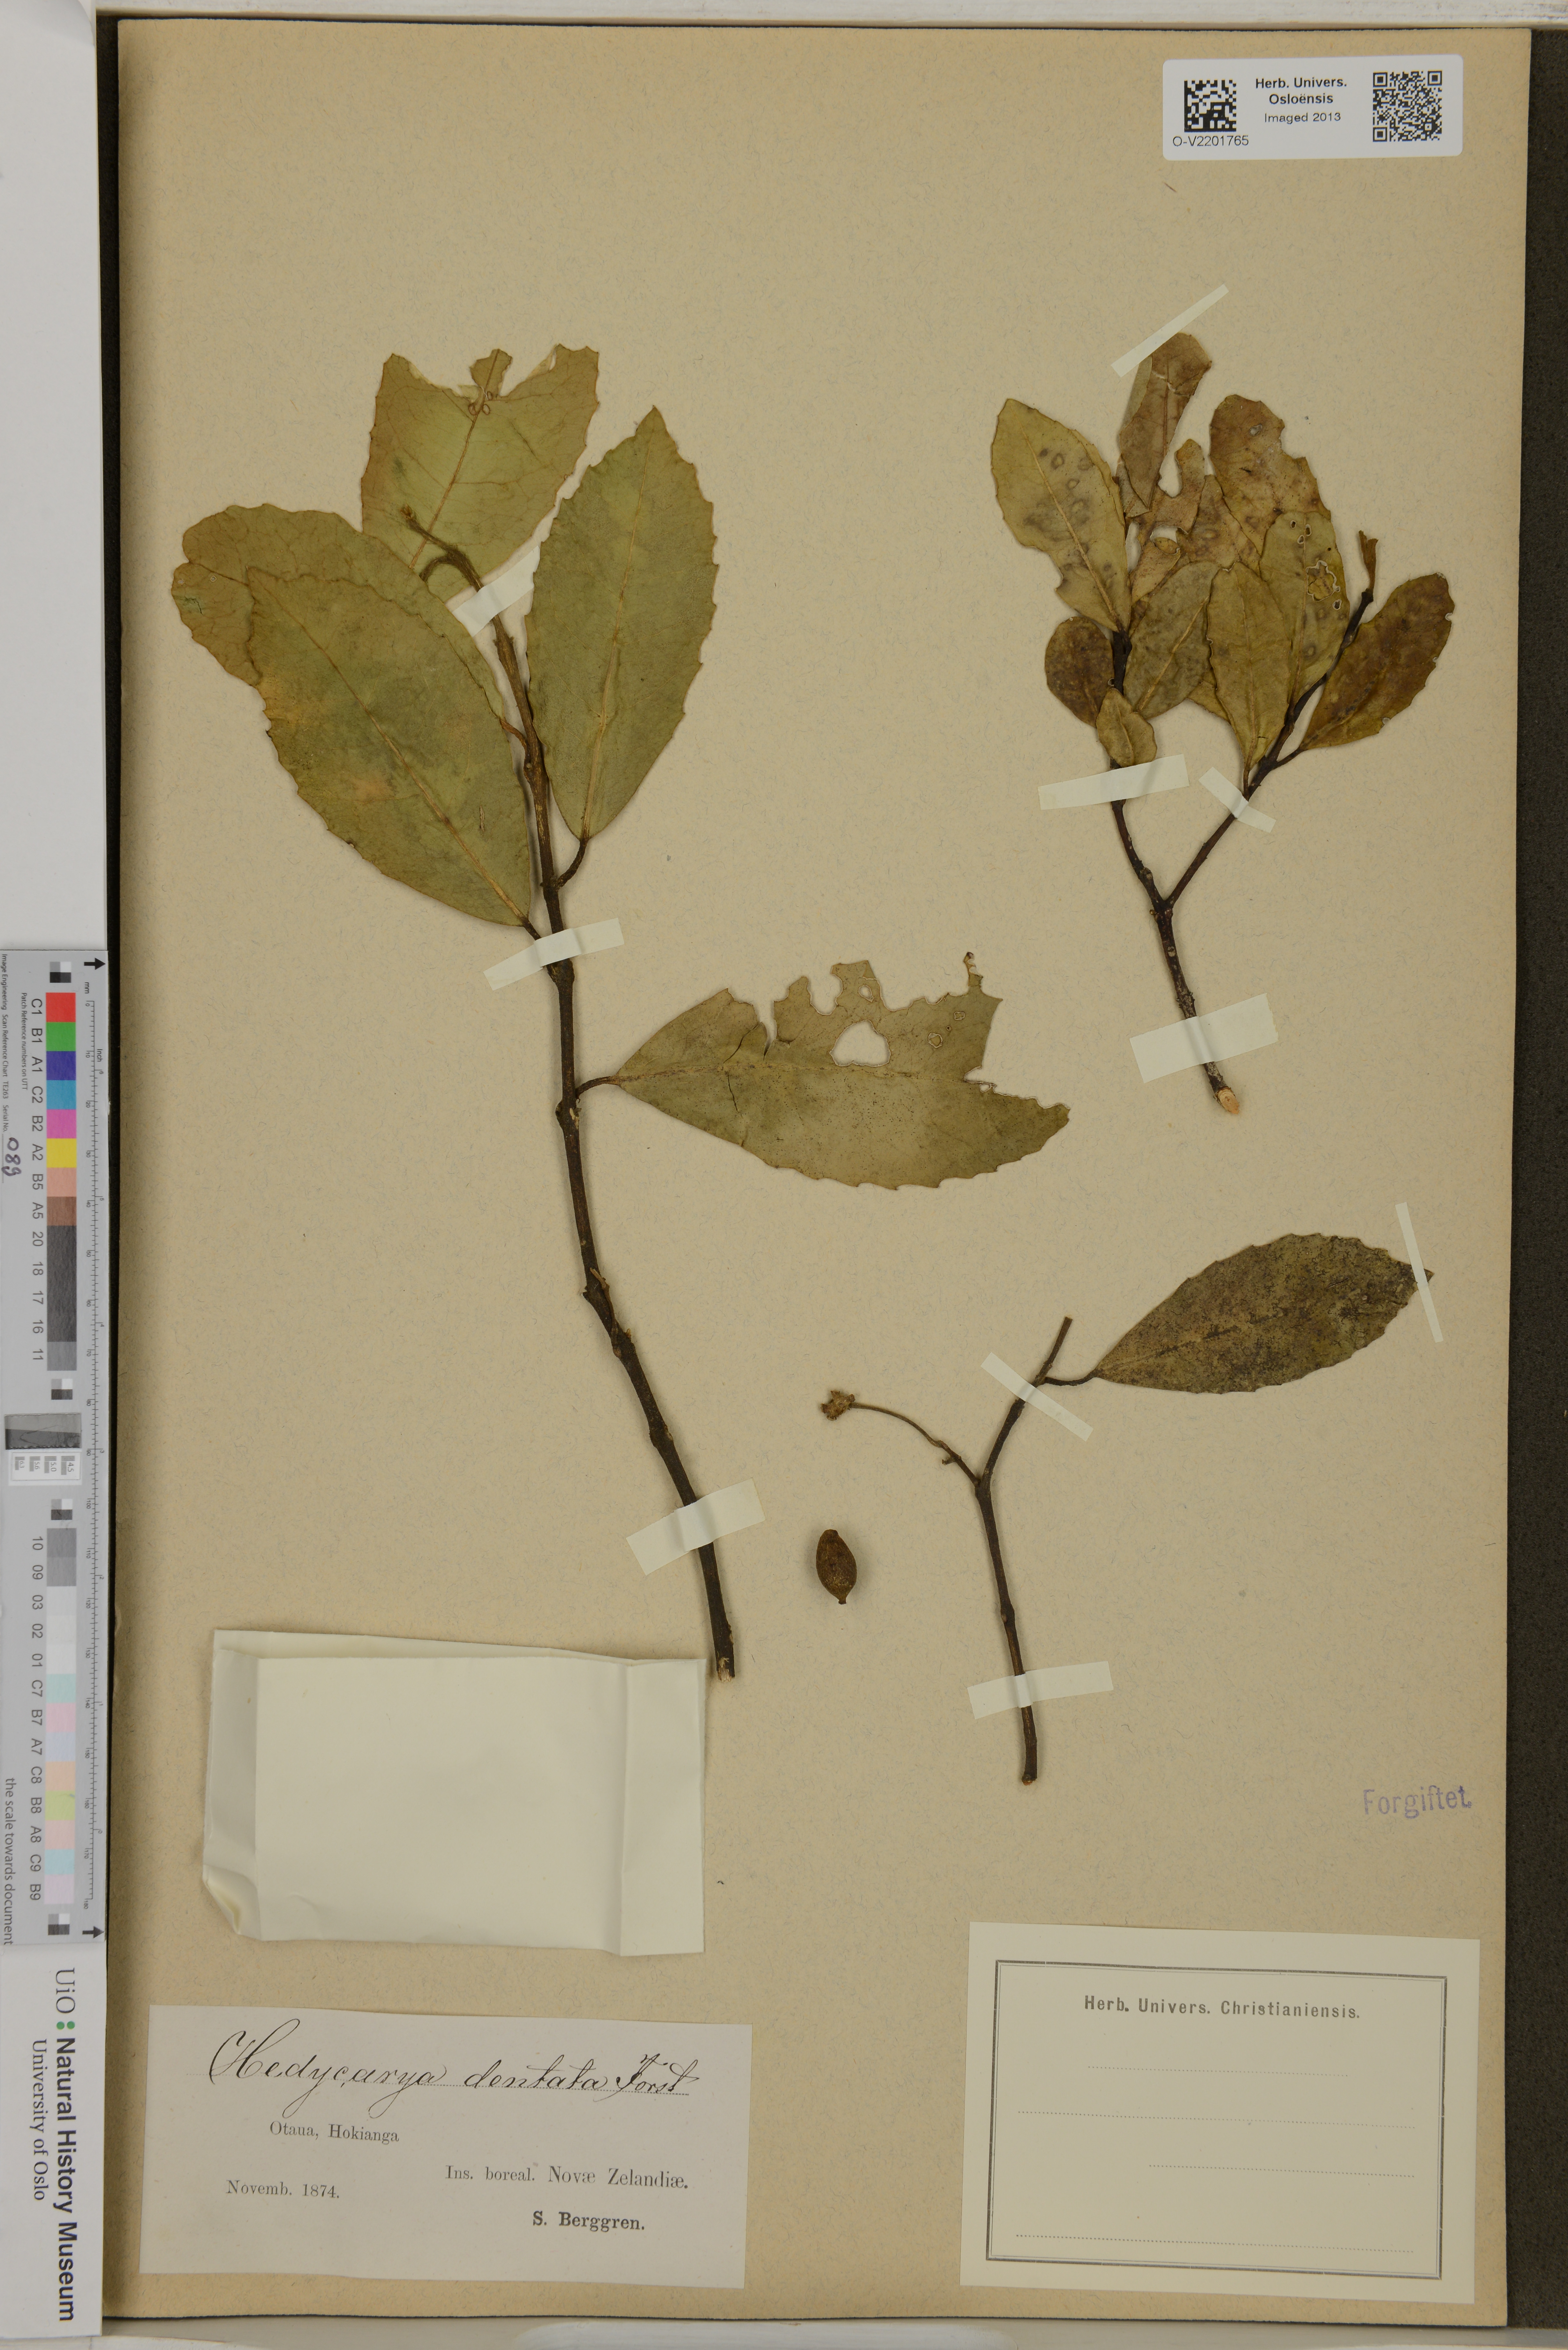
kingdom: Plantae
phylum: Tracheophyta
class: Magnoliopsida
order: Laurales
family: Monimiaceae
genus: Hedycarya
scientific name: Hedycarya arborea
